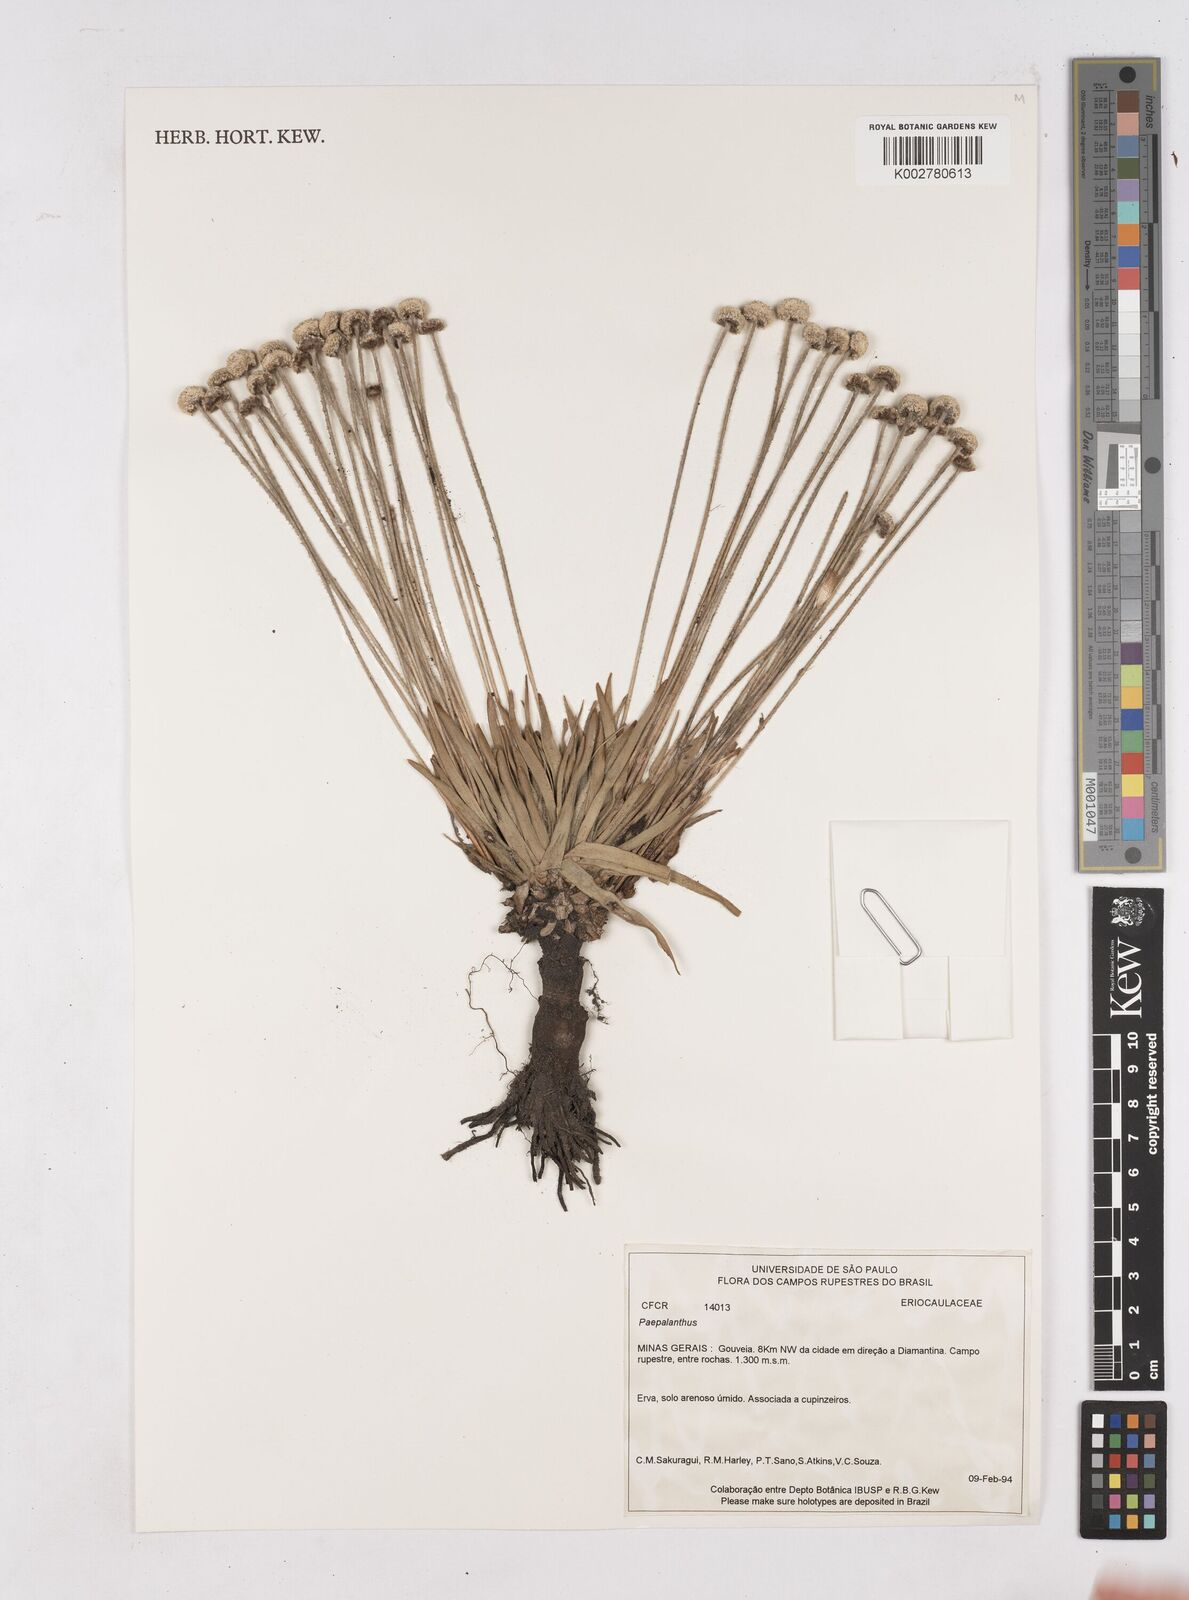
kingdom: Plantae
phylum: Tracheophyta
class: Liliopsida
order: Poales
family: Eriocaulaceae
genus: Paepalanthus
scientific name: Paepalanthus
